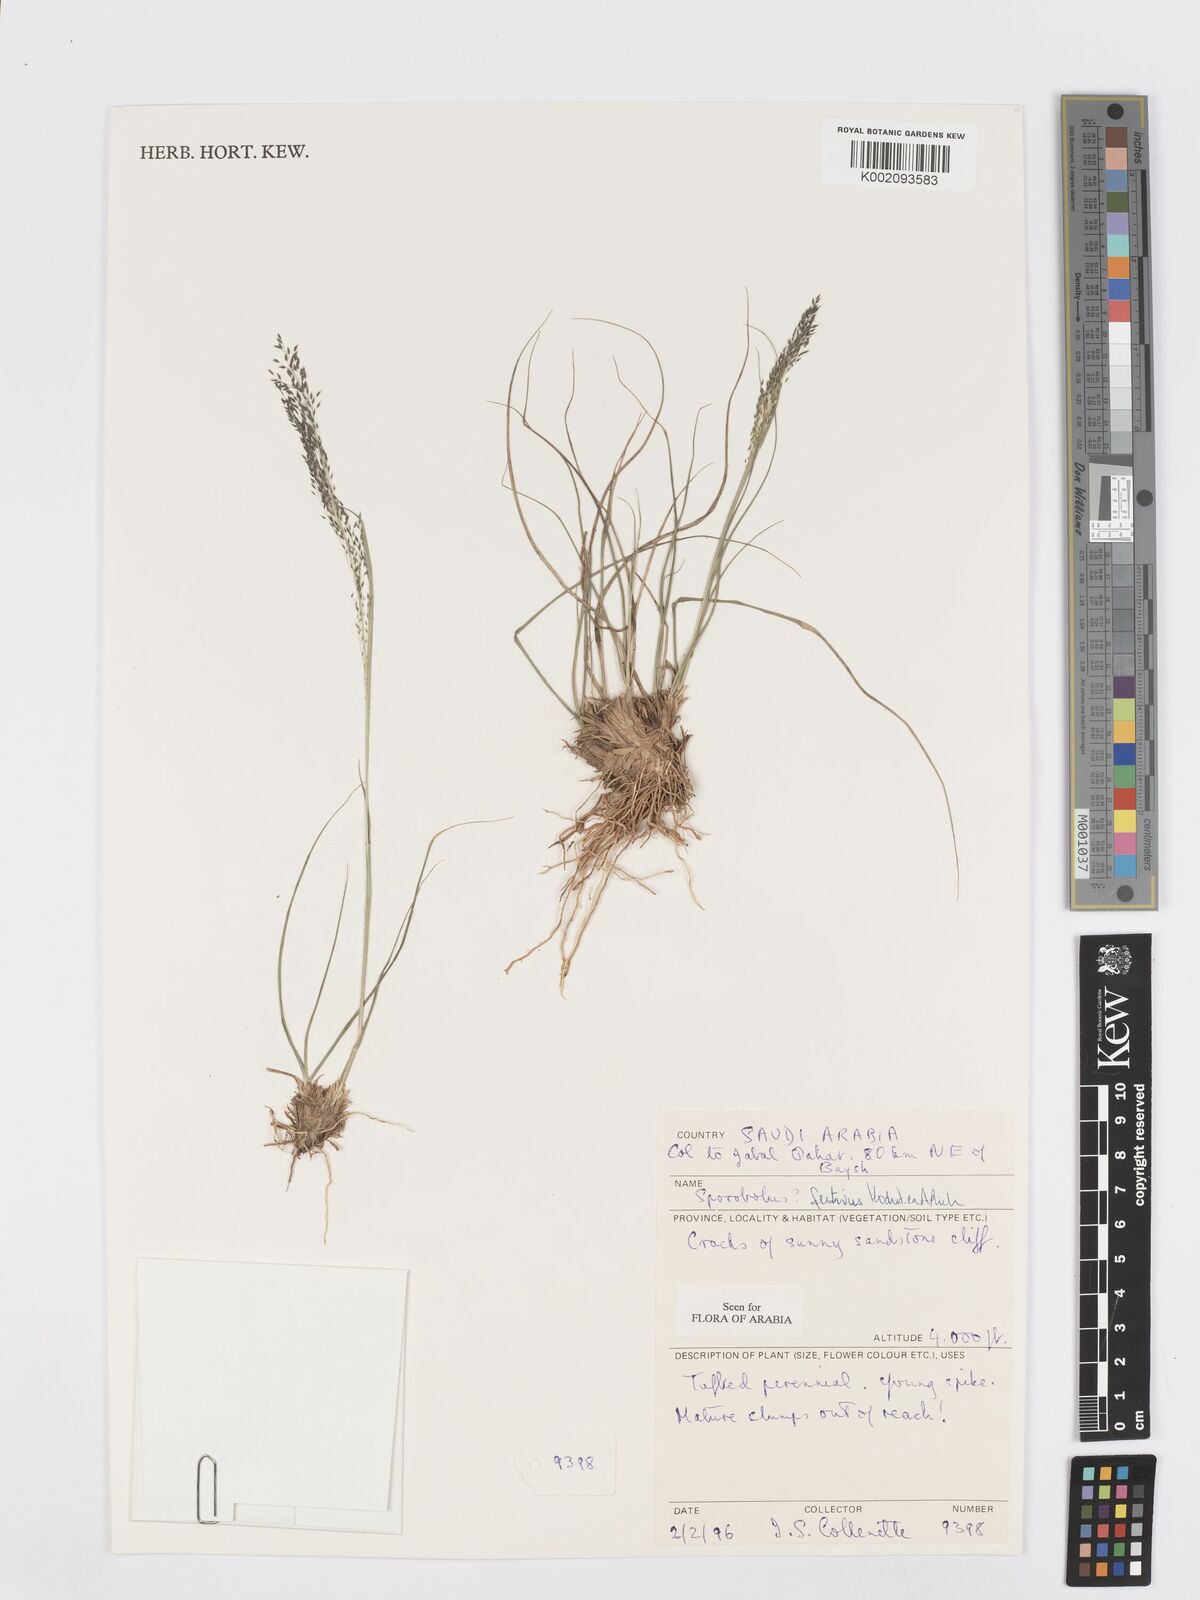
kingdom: Plantae
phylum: Tracheophyta
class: Liliopsida
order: Poales
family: Poaceae
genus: Sporobolus
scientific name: Sporobolus festivus
